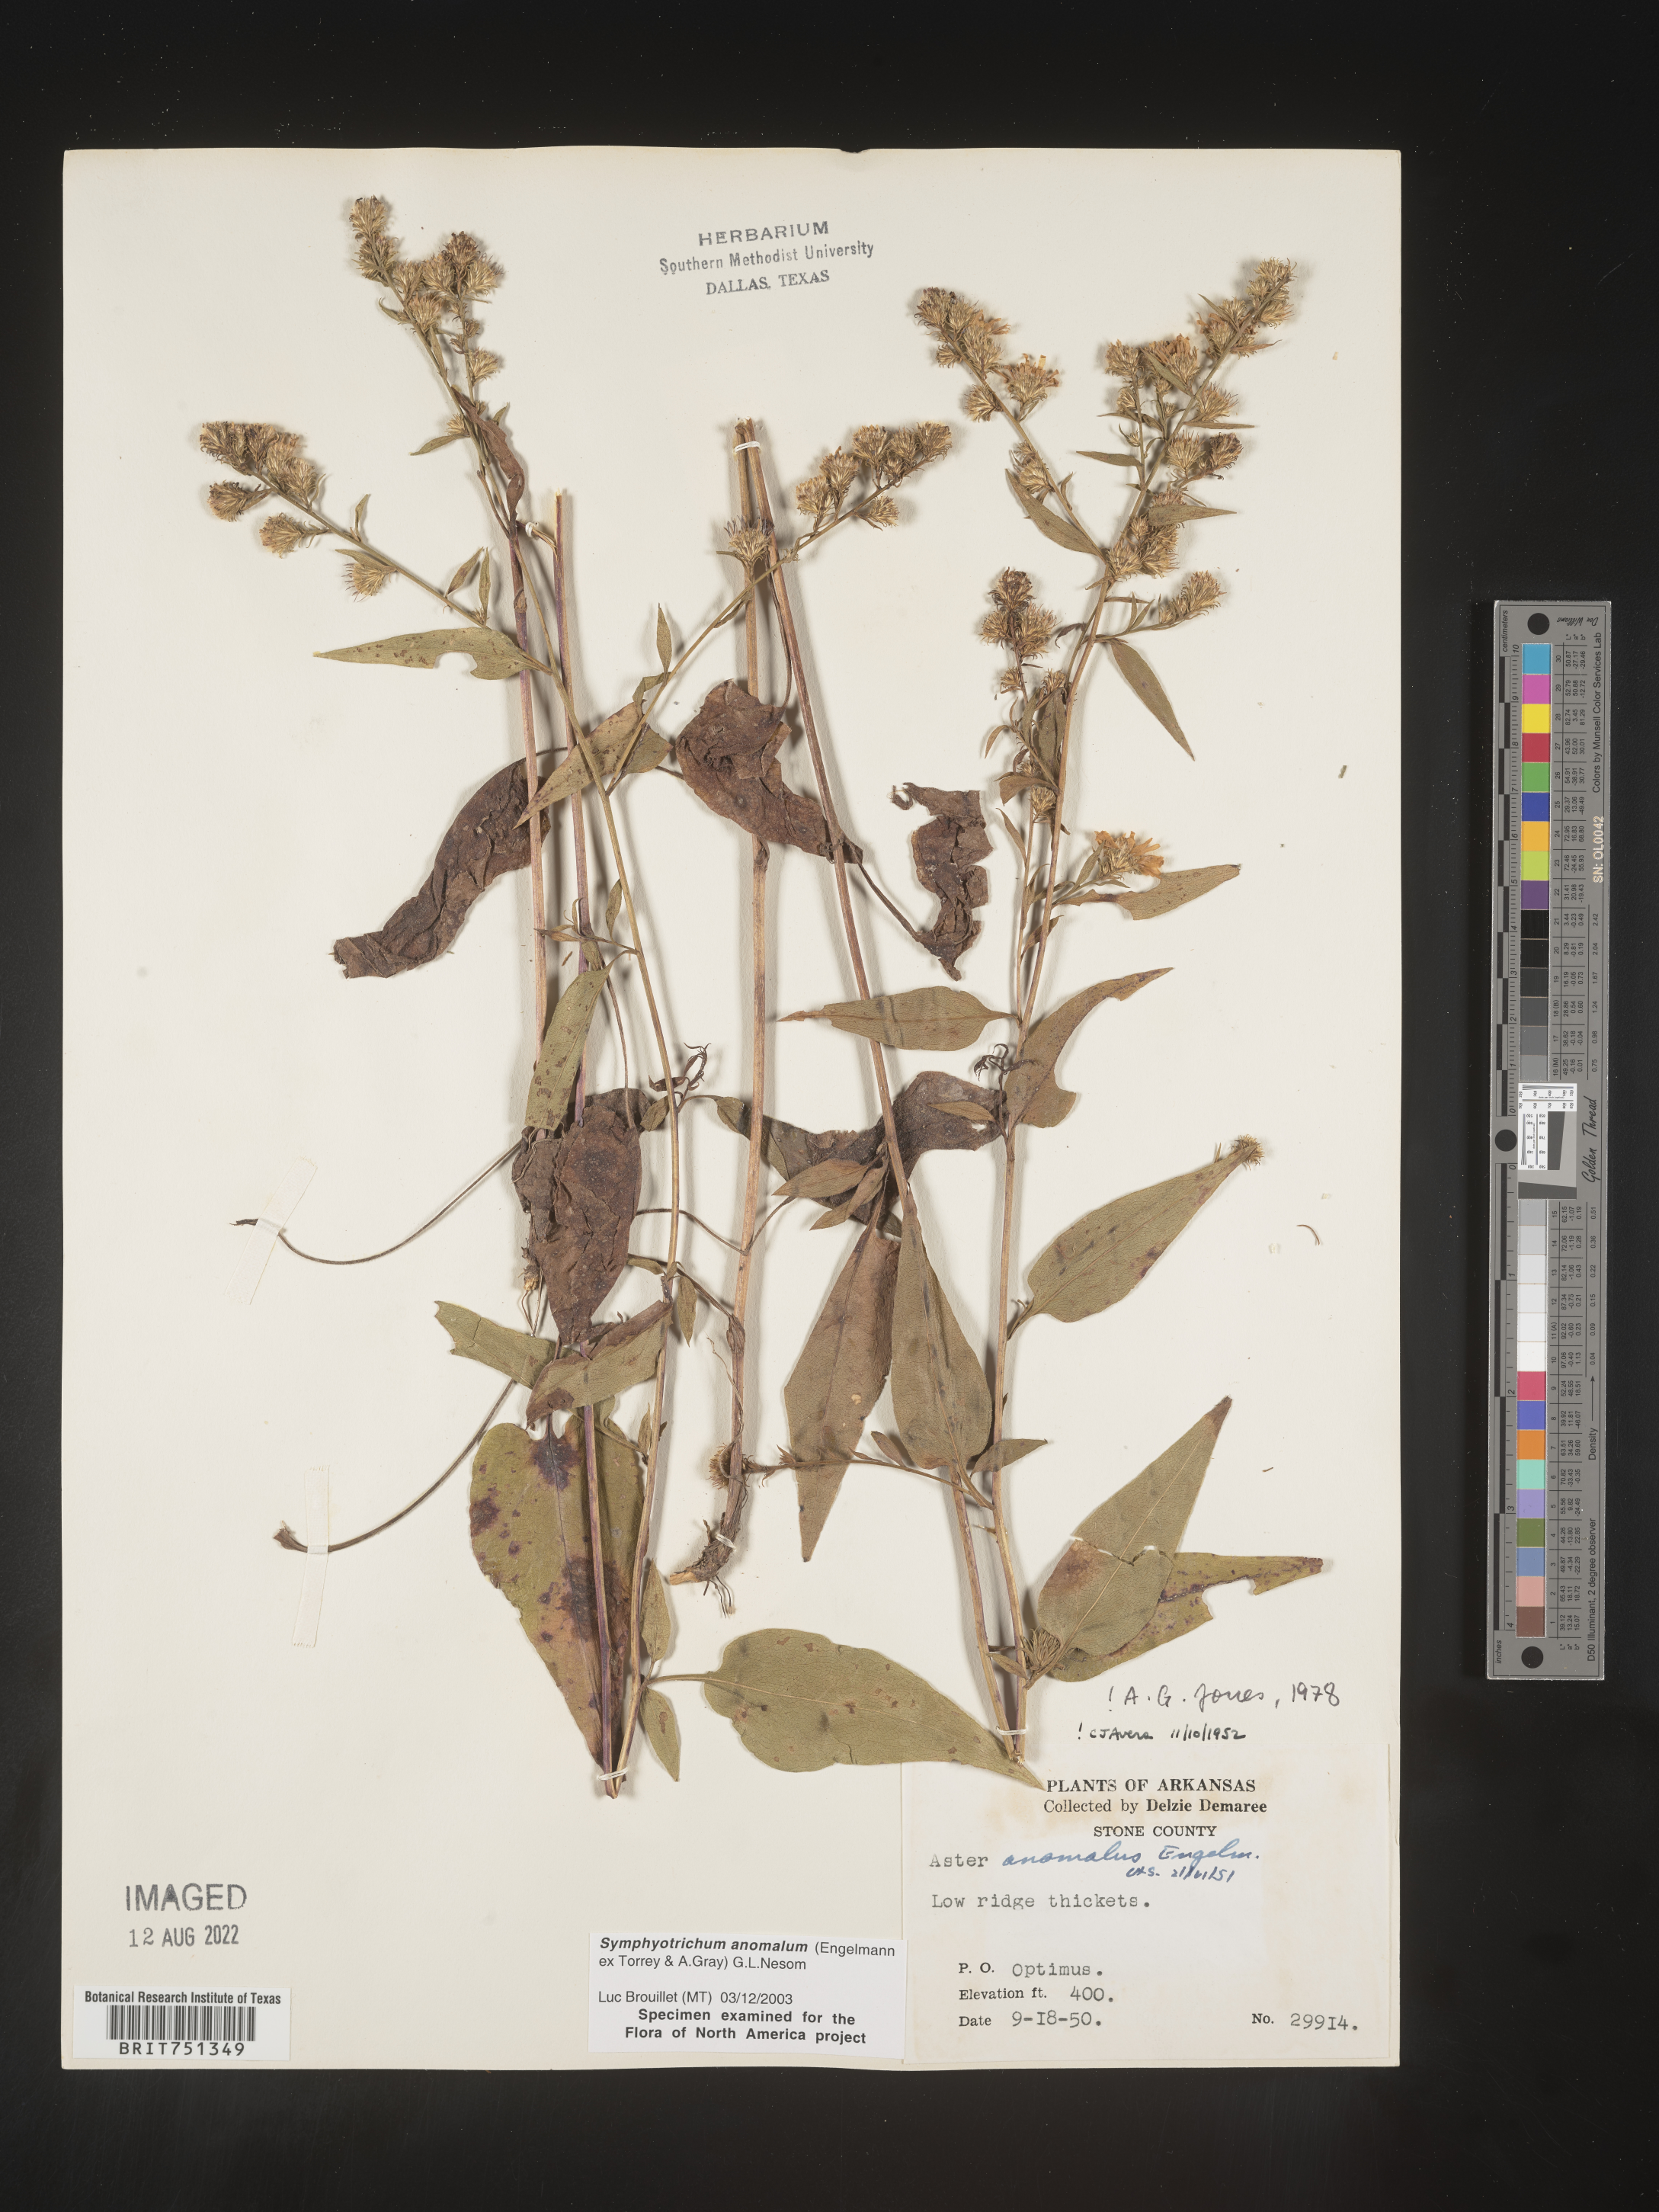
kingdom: Plantae
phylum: Tracheophyta
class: Magnoliopsida
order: Asterales
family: Asteraceae
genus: Symphyotrichum
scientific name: Symphyotrichum anomalum
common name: Many-ray aster
